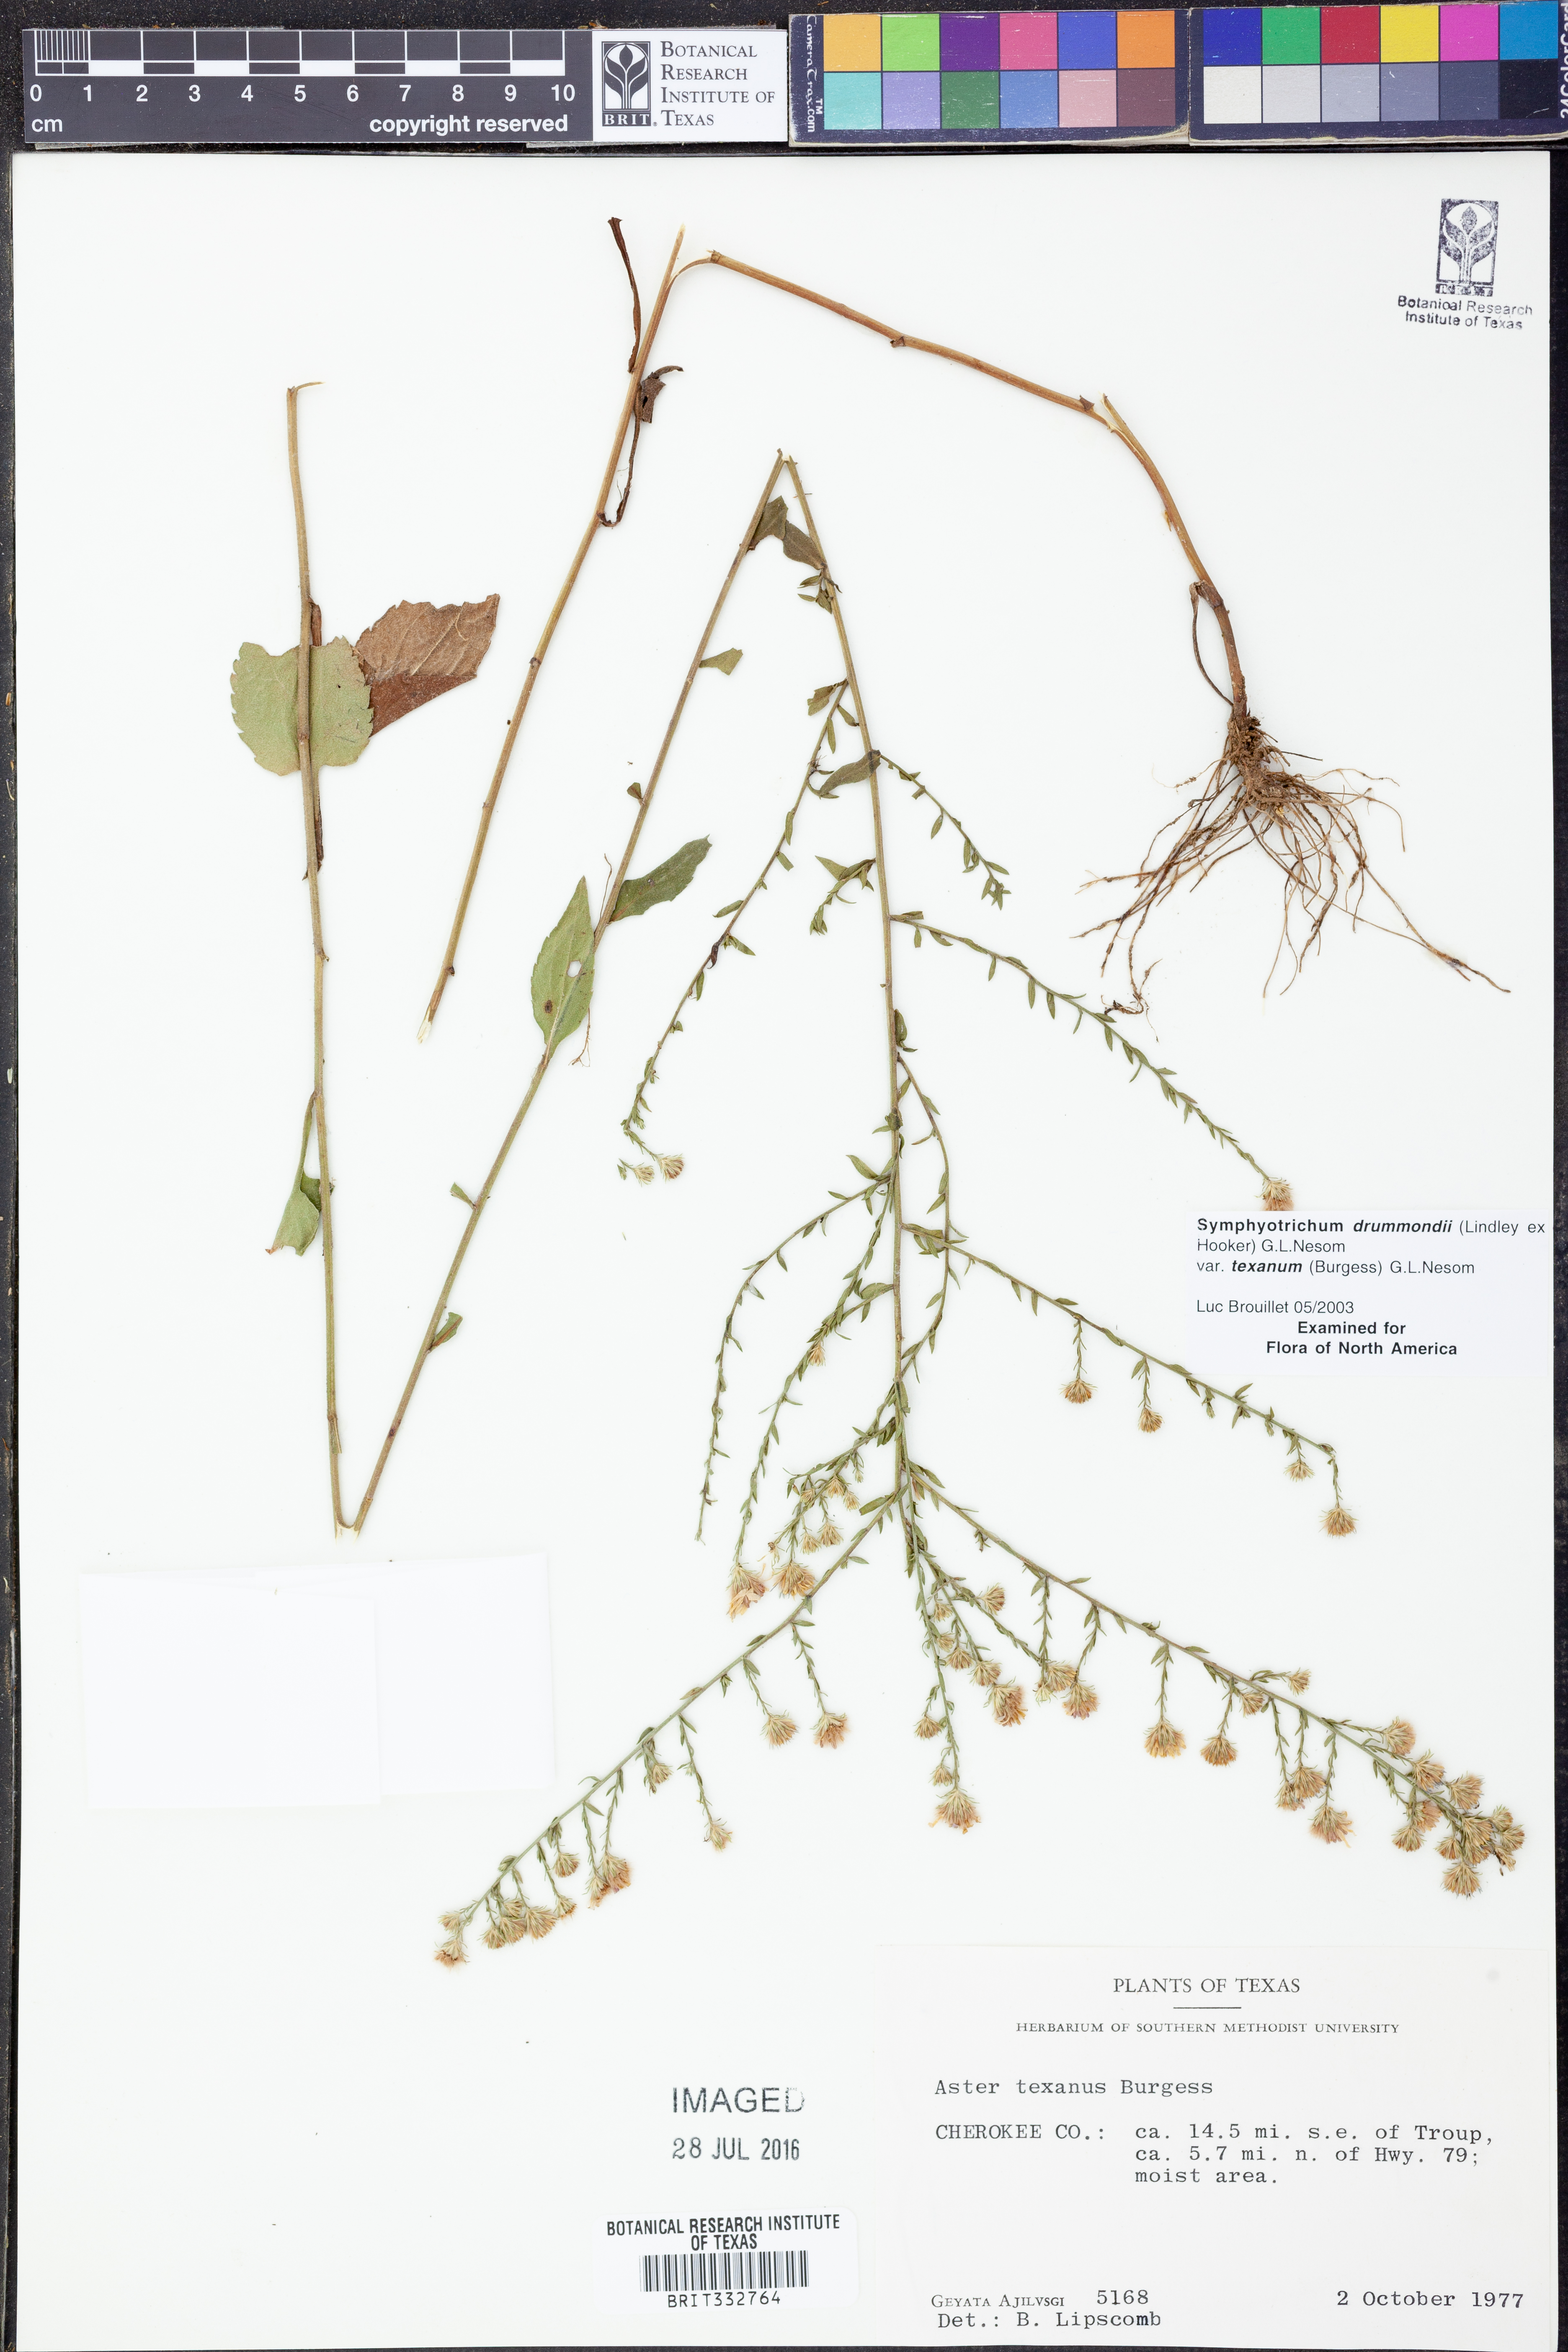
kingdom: Plantae
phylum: Tracheophyta
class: Magnoliopsida
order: Asterales
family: Asteraceae
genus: Symphyotrichum
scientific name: Symphyotrichum drummondii
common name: Drummond's aster
